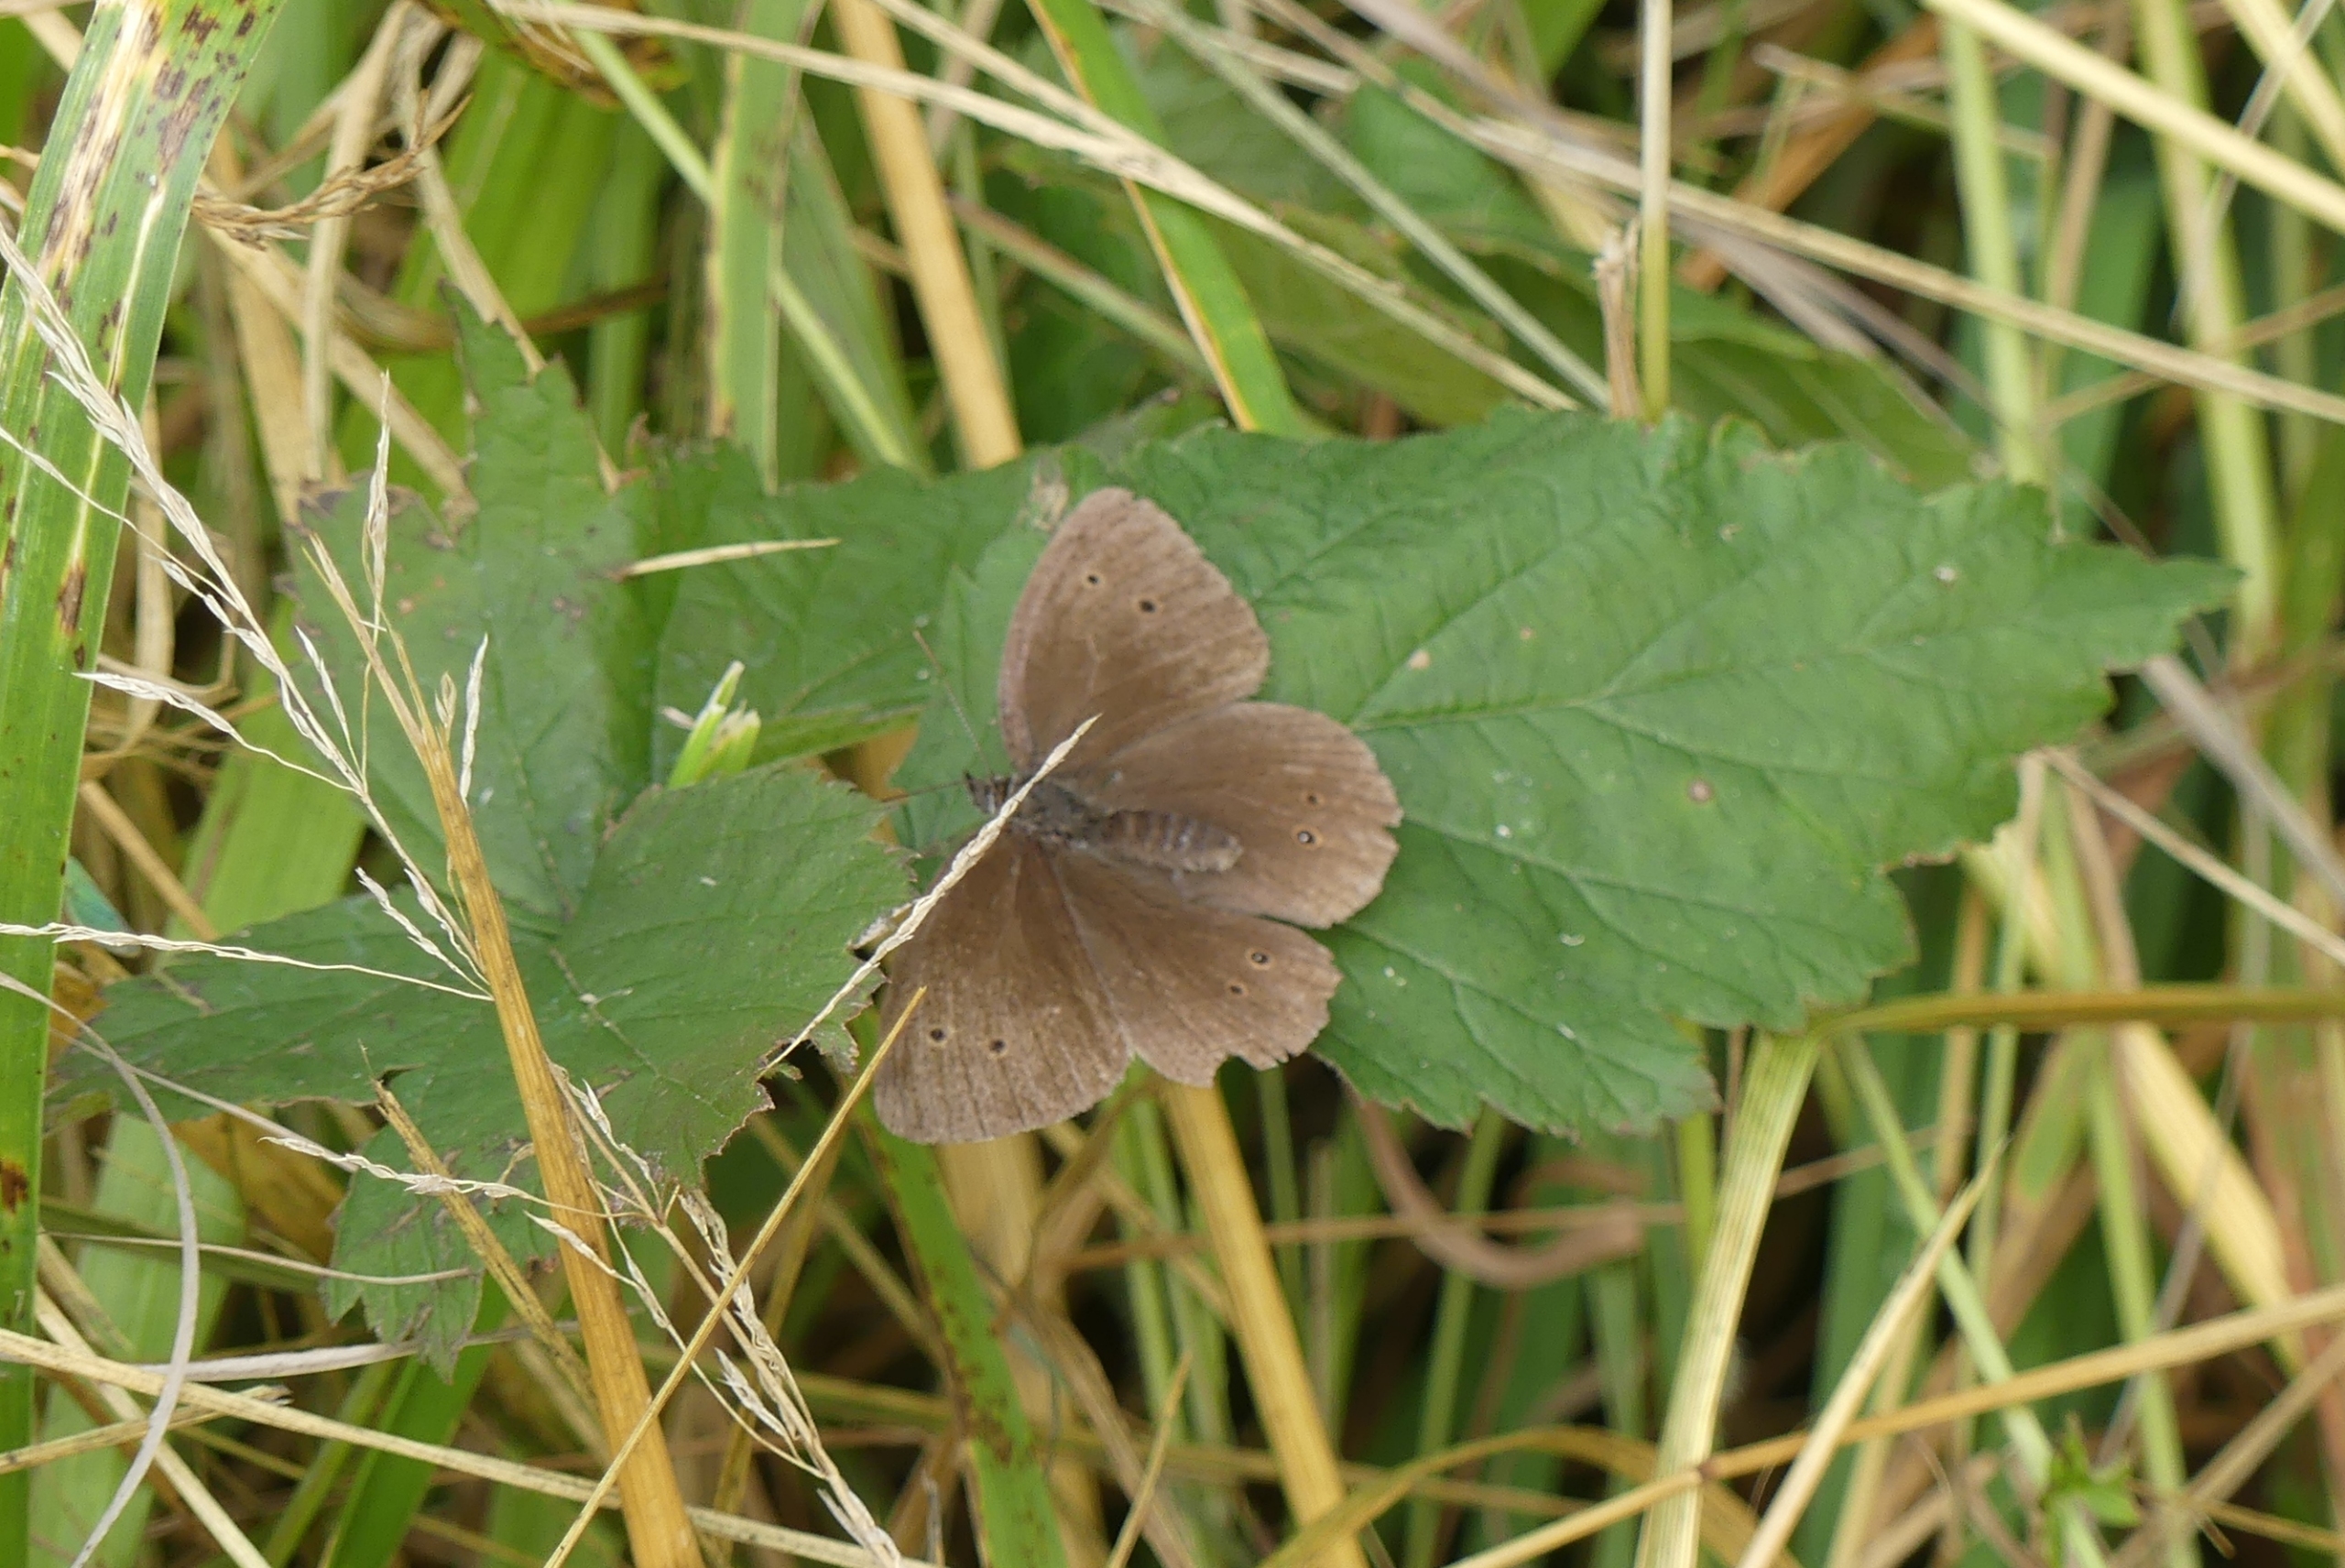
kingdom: Animalia
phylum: Arthropoda
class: Insecta
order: Lepidoptera
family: Nymphalidae
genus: Aphantopus
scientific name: Aphantopus hyperantus
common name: Engrandøje
